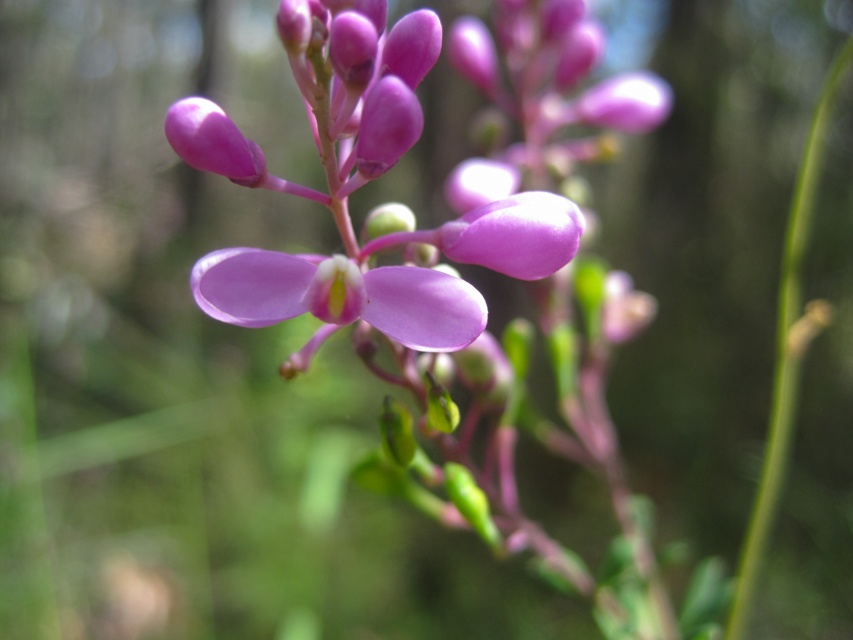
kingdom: Plantae
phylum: Tracheophyta
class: Magnoliopsida
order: Fabales
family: Polygalaceae
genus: Comesperma
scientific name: Comesperma ericinum
